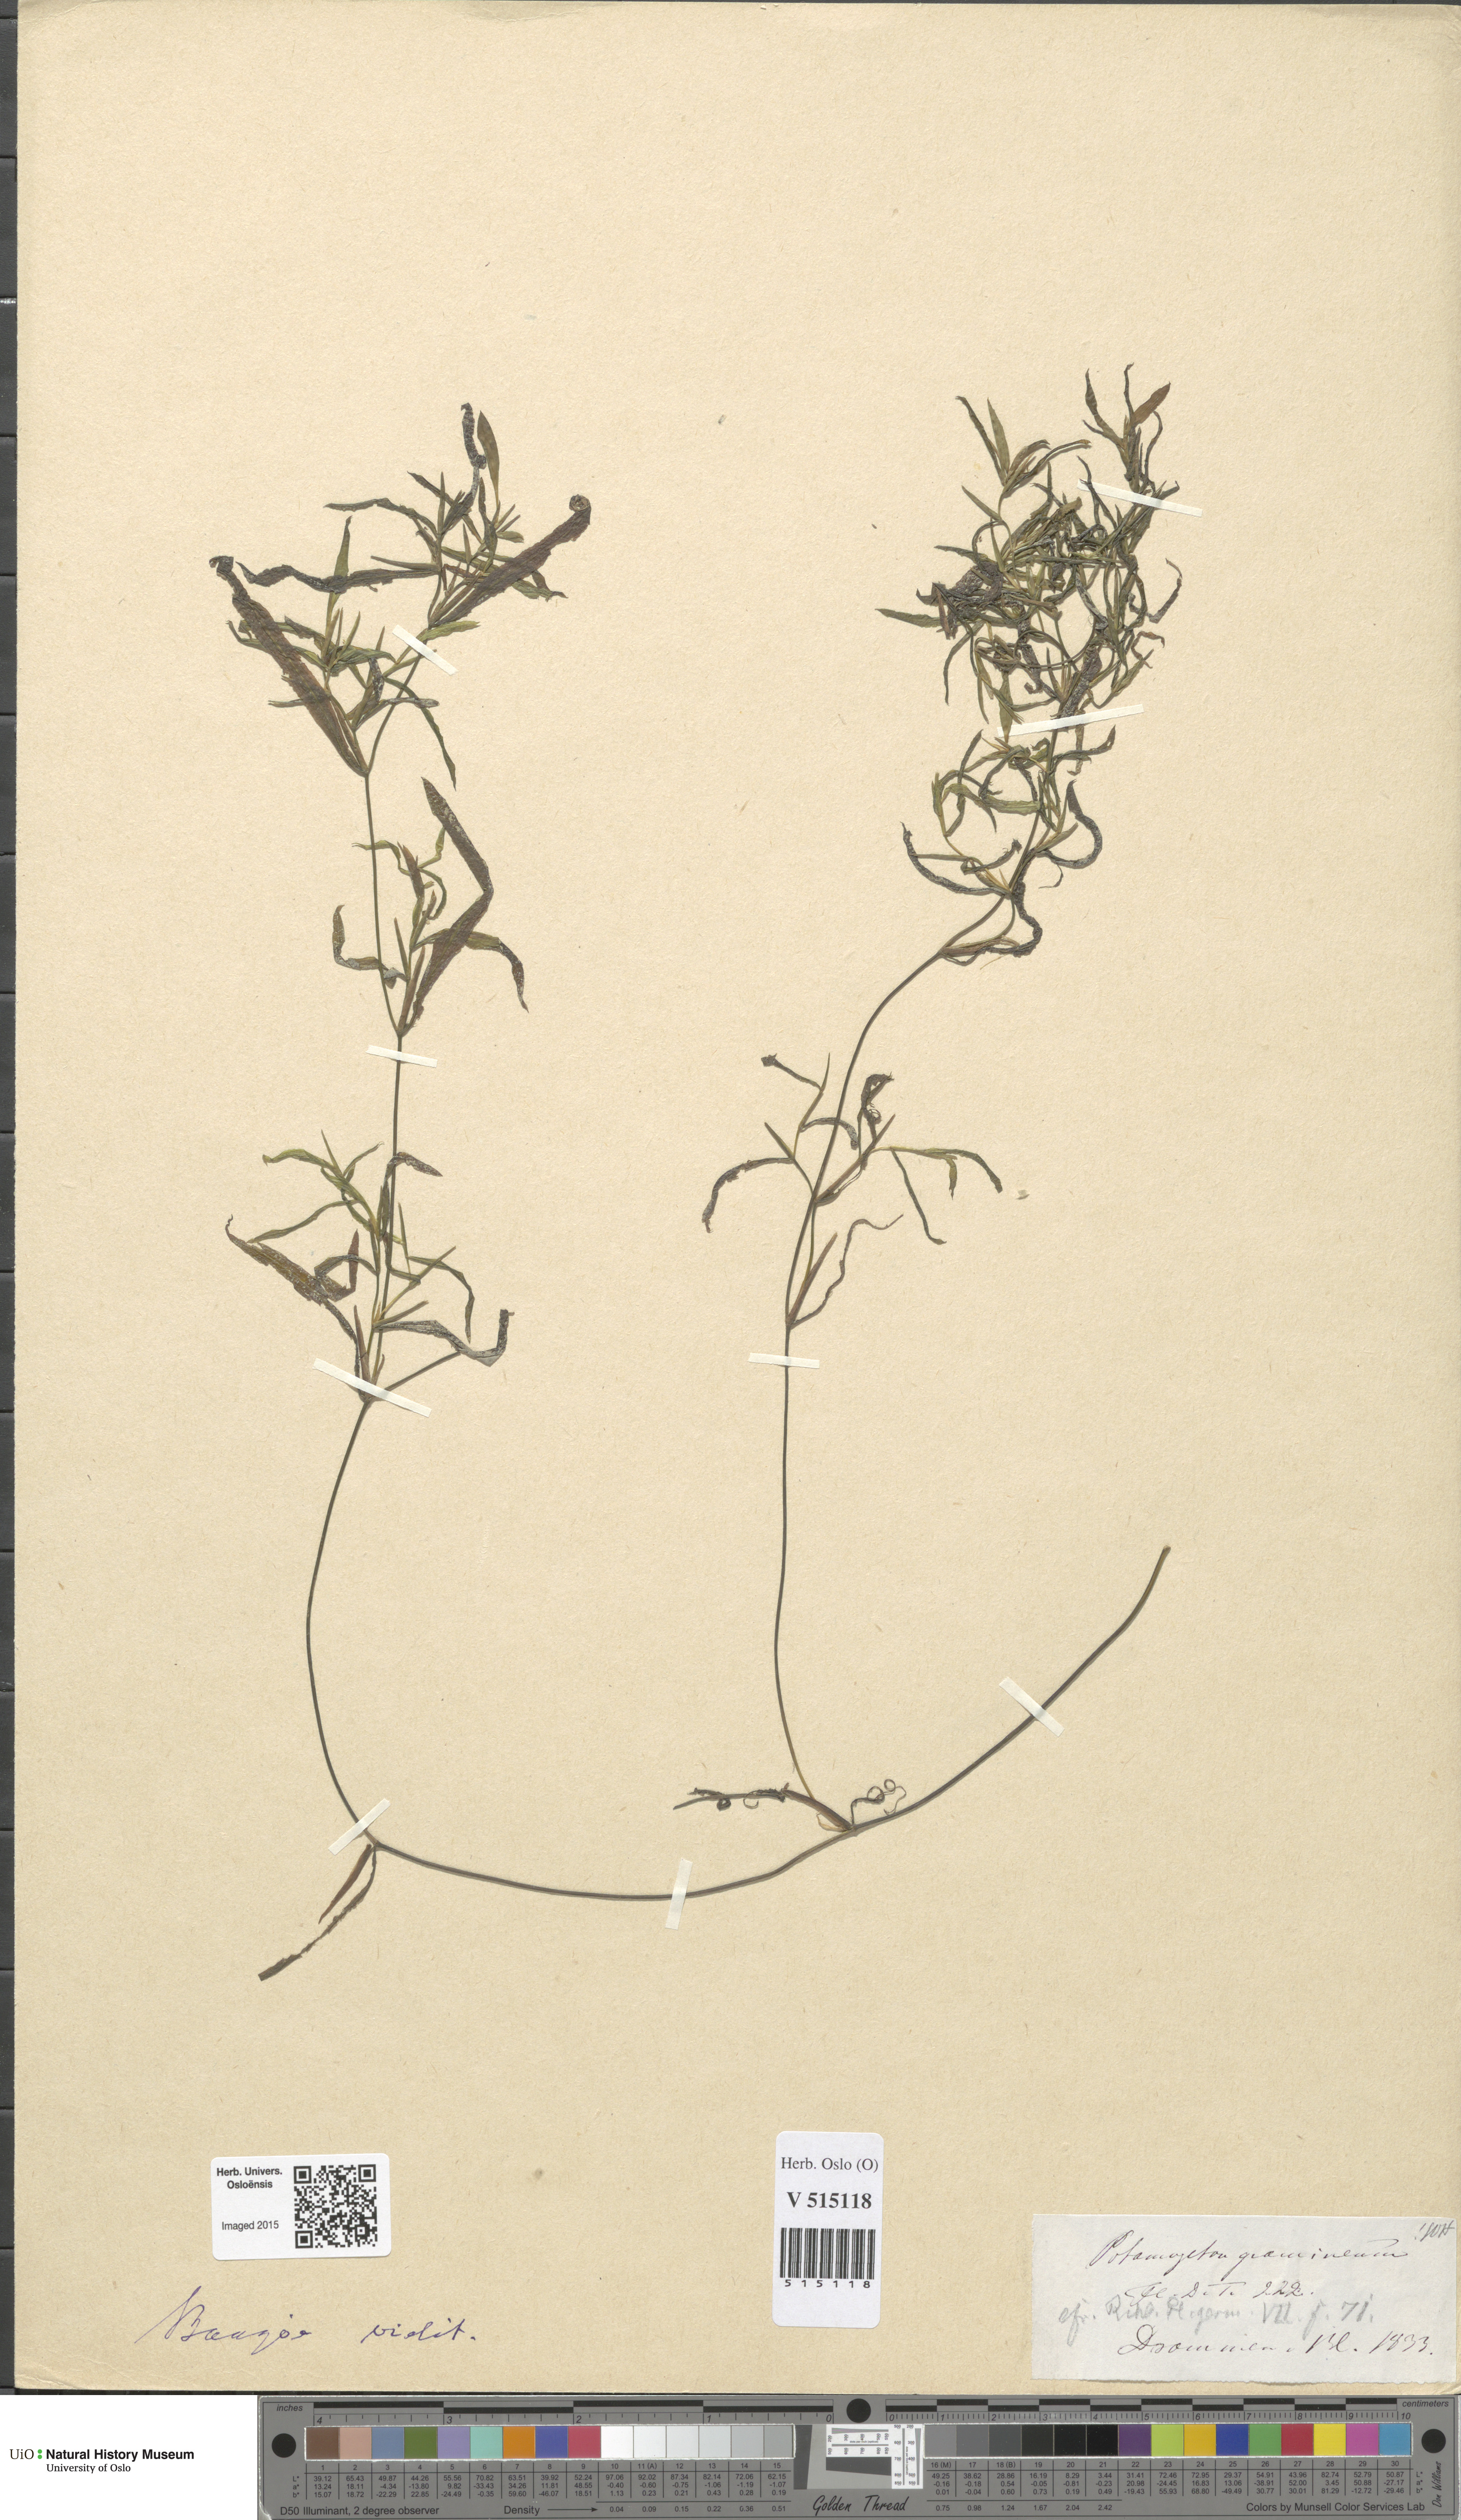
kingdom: Plantae
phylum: Tracheophyta
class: Liliopsida
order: Alismatales
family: Potamogetonaceae
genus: Potamogeton
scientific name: Potamogeton gramineus
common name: Various-leaved pondweed
